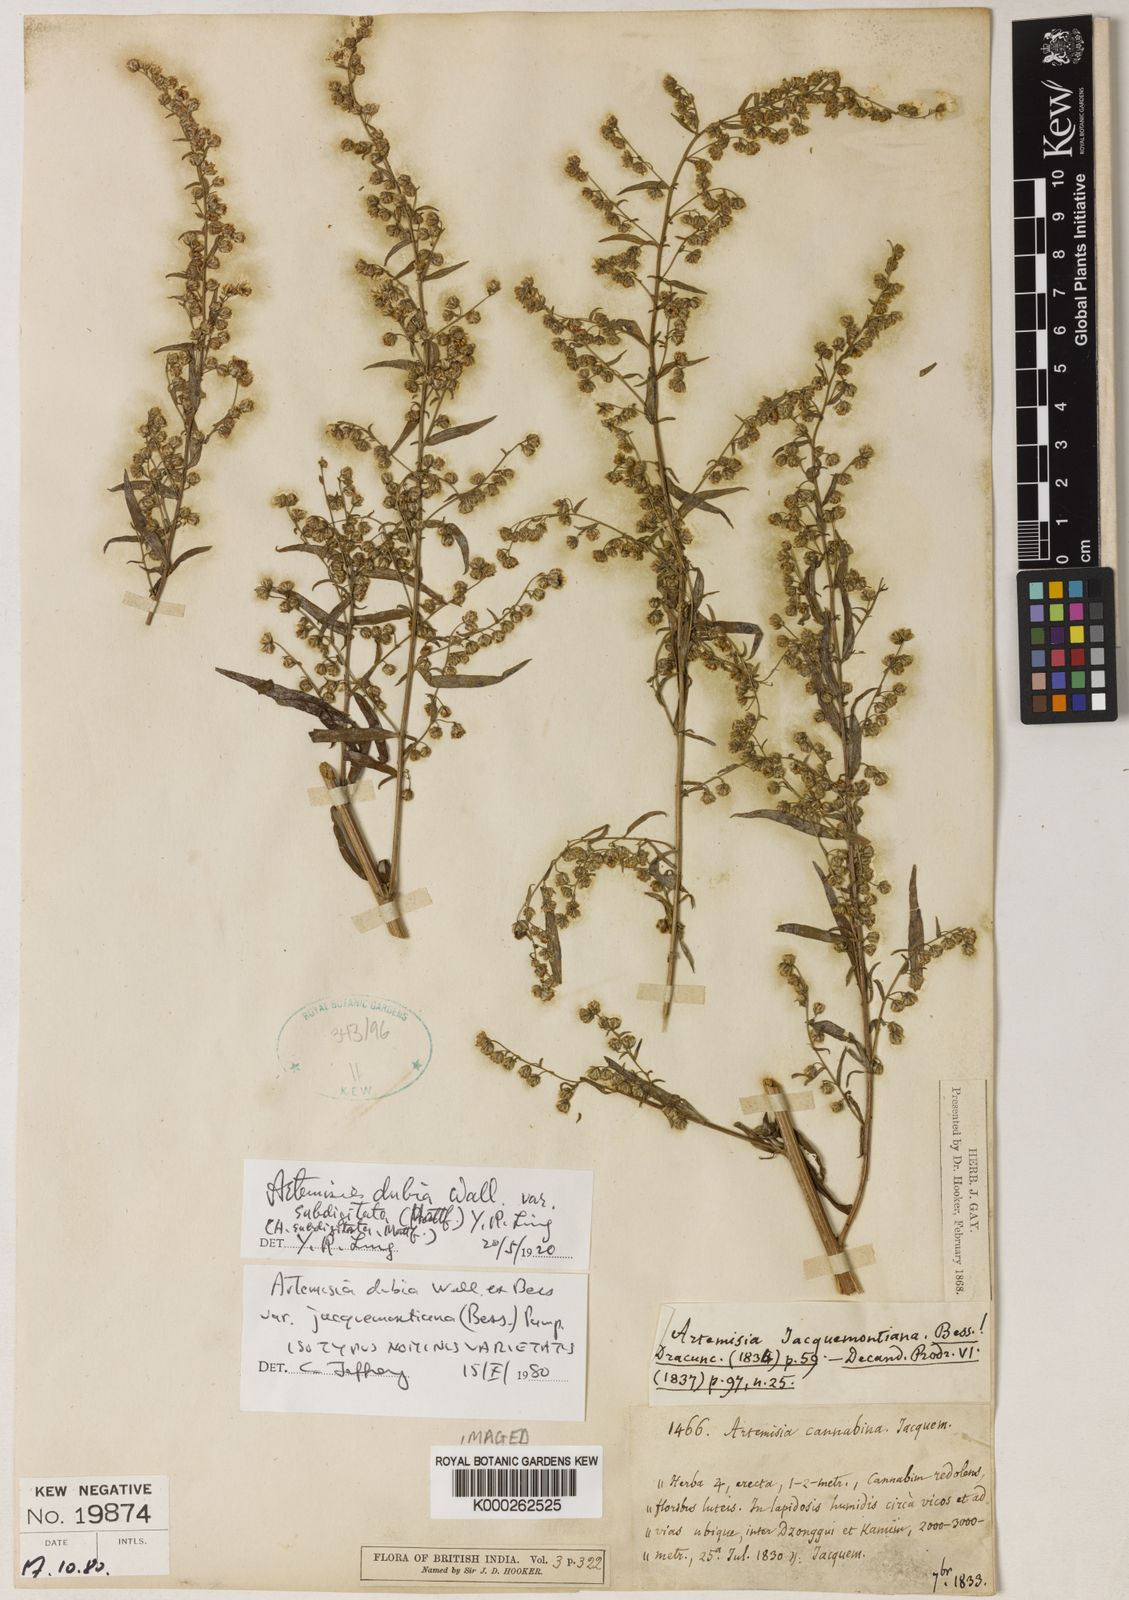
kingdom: Plantae
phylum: Tracheophyta
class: Magnoliopsida
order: Asterales
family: Asteraceae
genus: Artemisia
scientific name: Artemisia dubia
